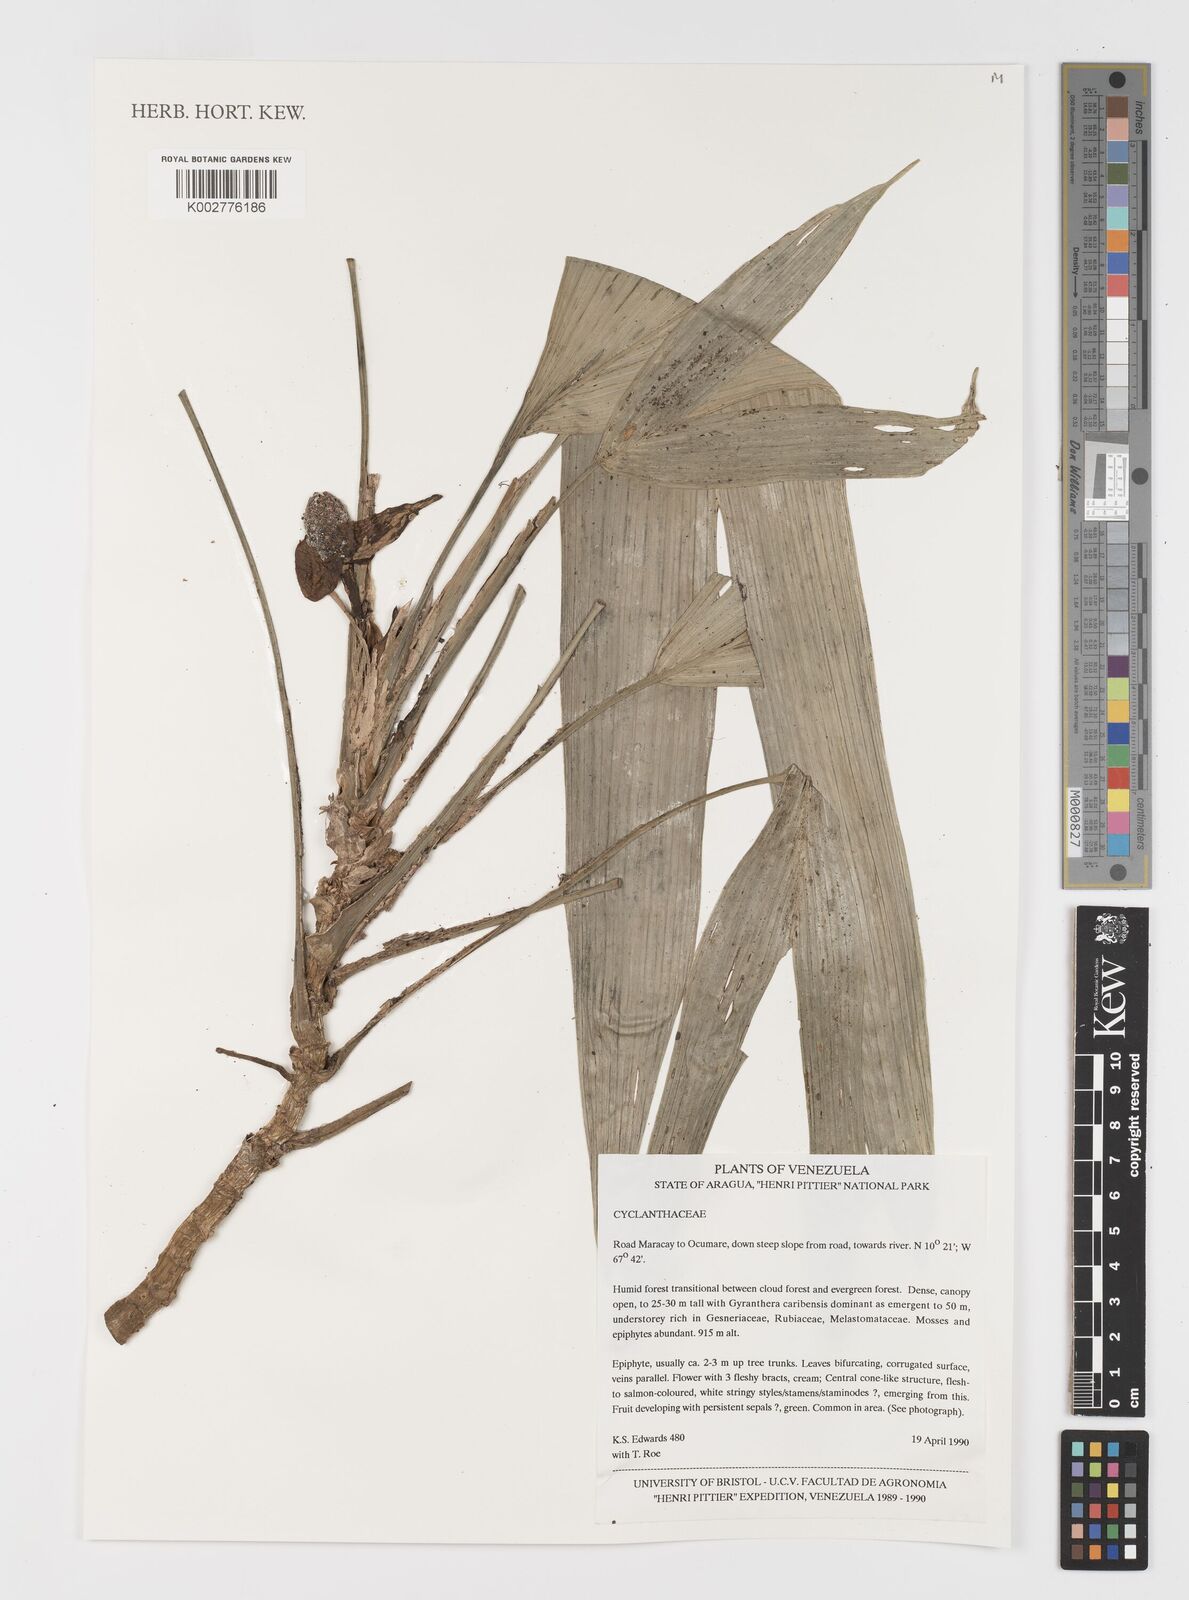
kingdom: Plantae
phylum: Tracheophyta
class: Liliopsida
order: Pandanales
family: Cyclanthaceae
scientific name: Cyclanthaceae
